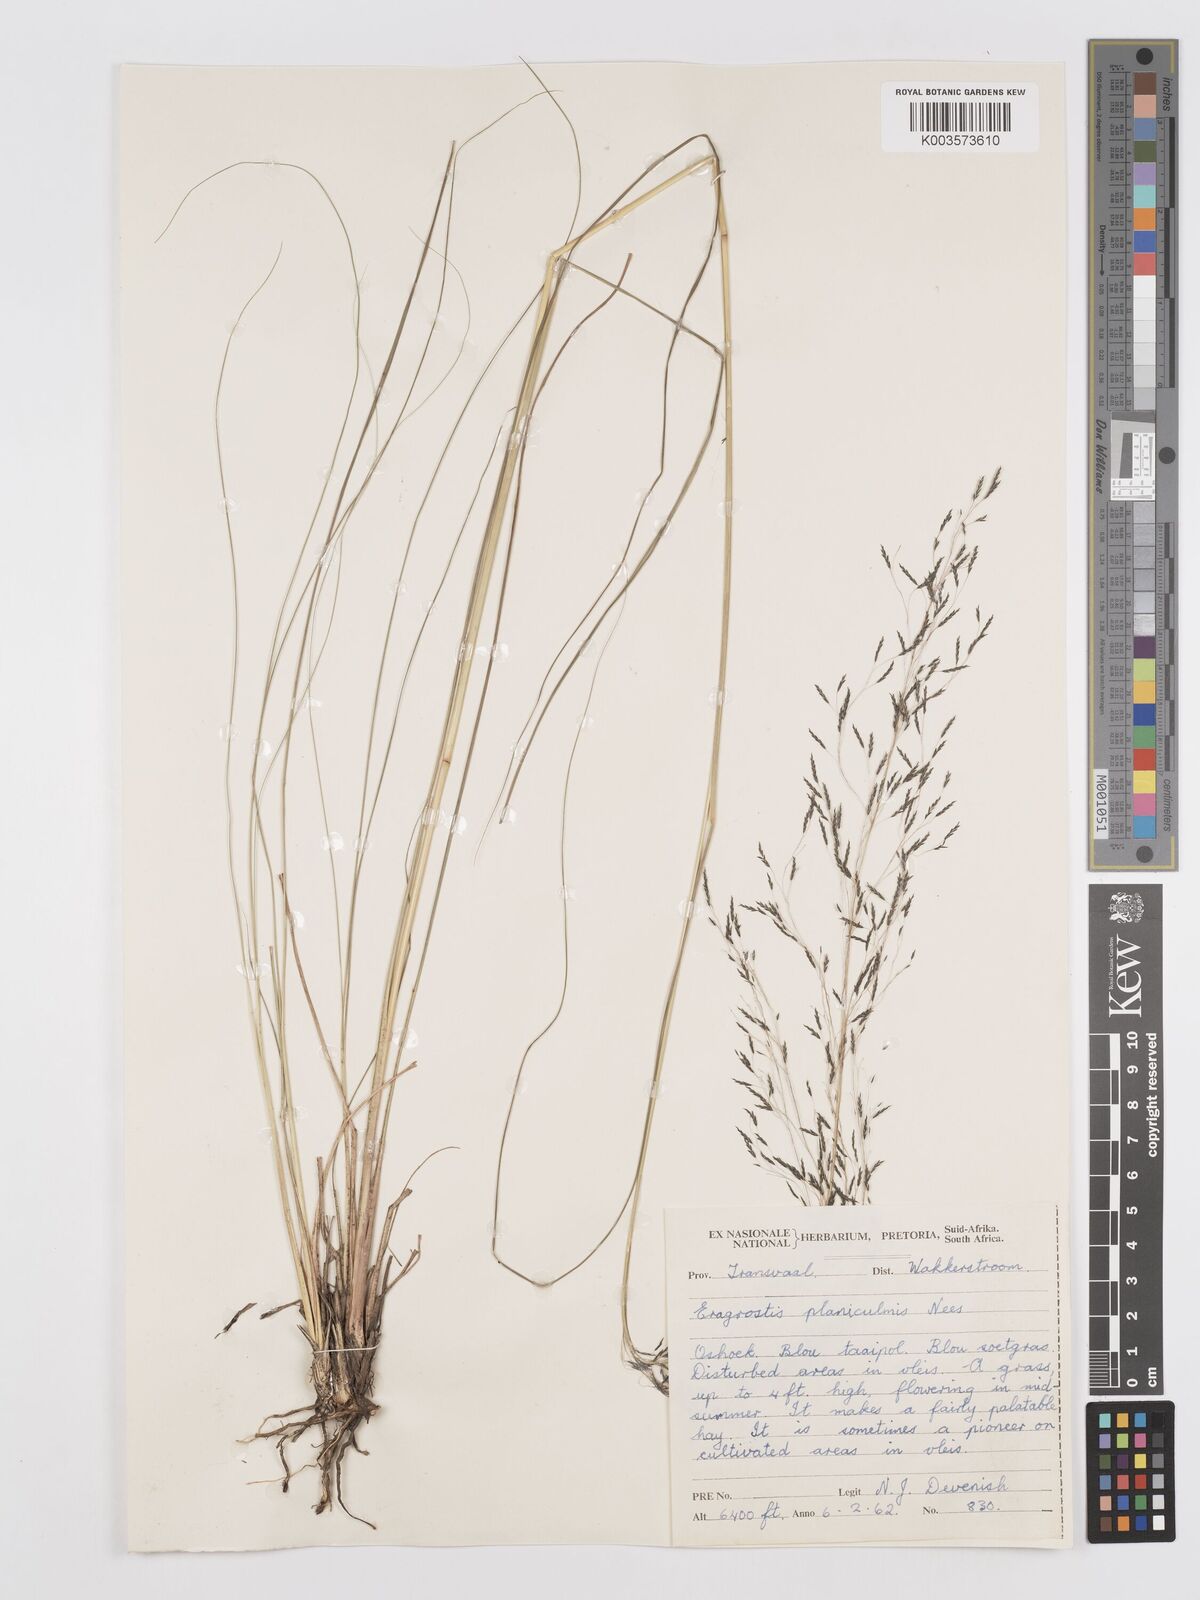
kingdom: Plantae
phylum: Tracheophyta
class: Liliopsida
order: Poales
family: Poaceae
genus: Eragrostis
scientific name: Eragrostis planiculmis
